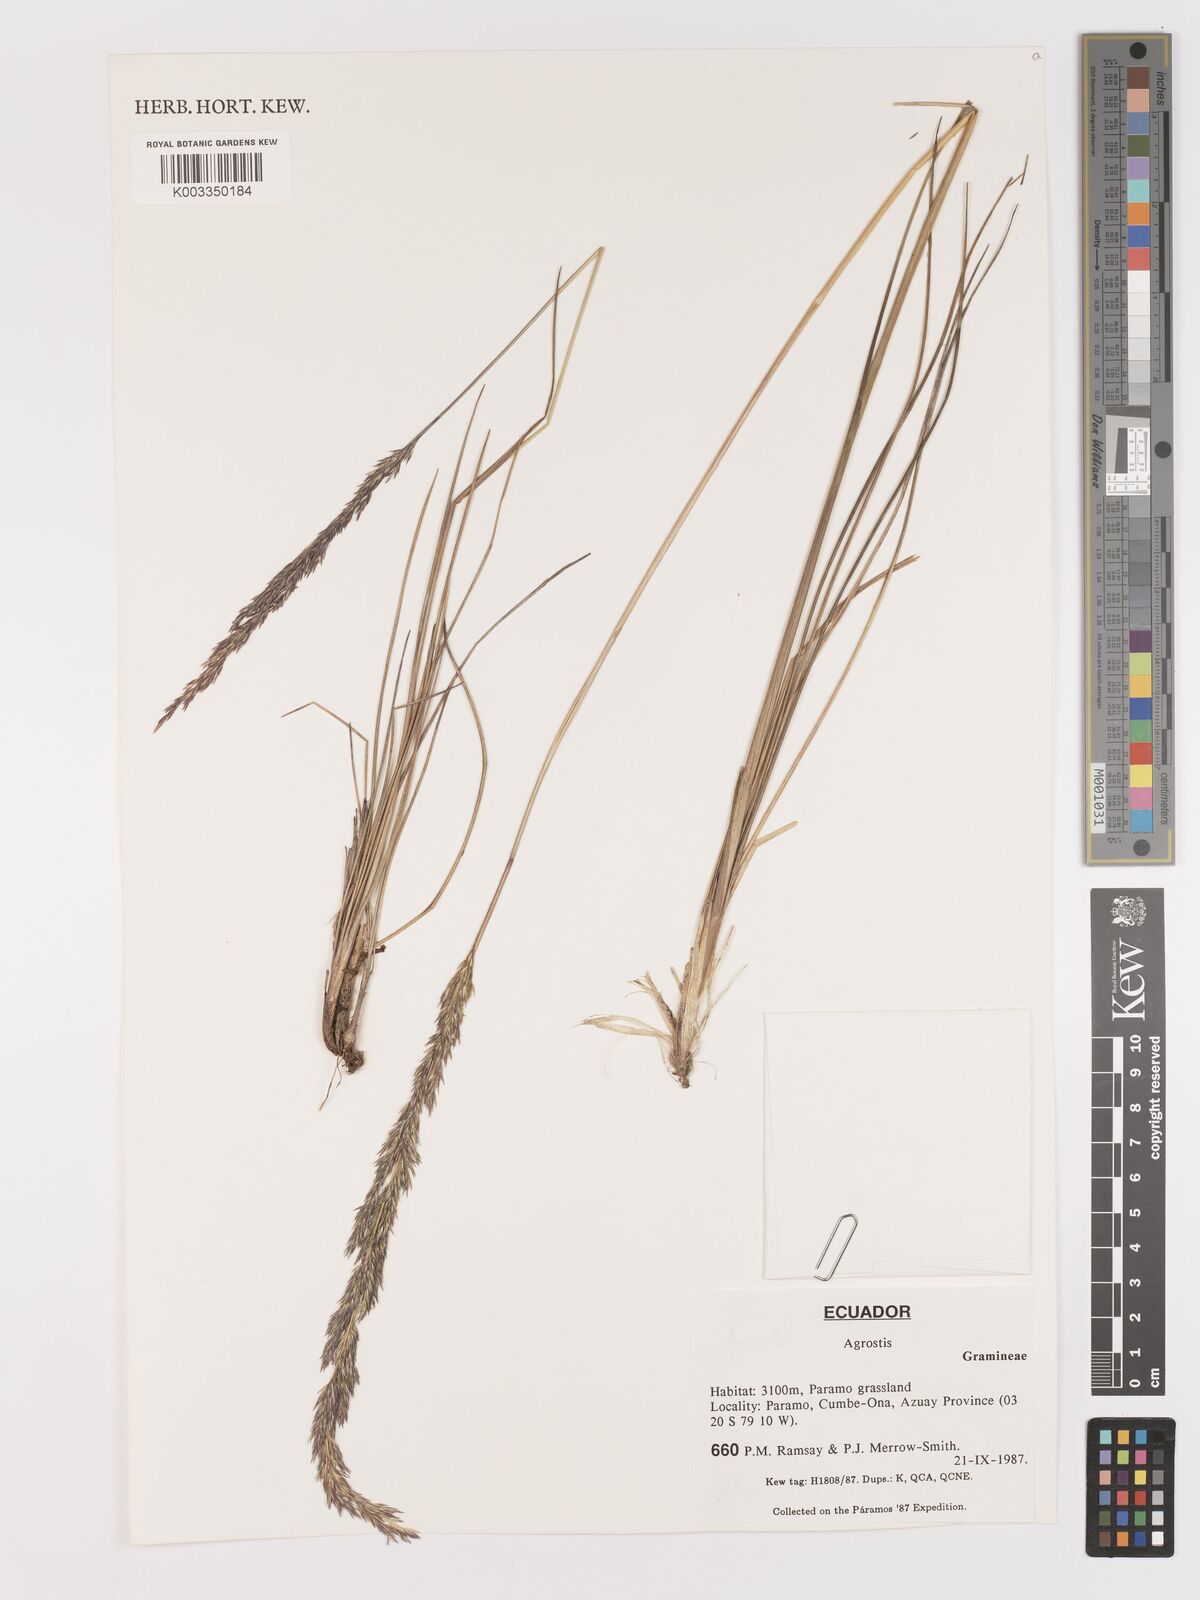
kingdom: Plantae
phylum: Tracheophyta
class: Liliopsida
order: Poales
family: Poaceae
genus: Agrostis
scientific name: Agrostis
